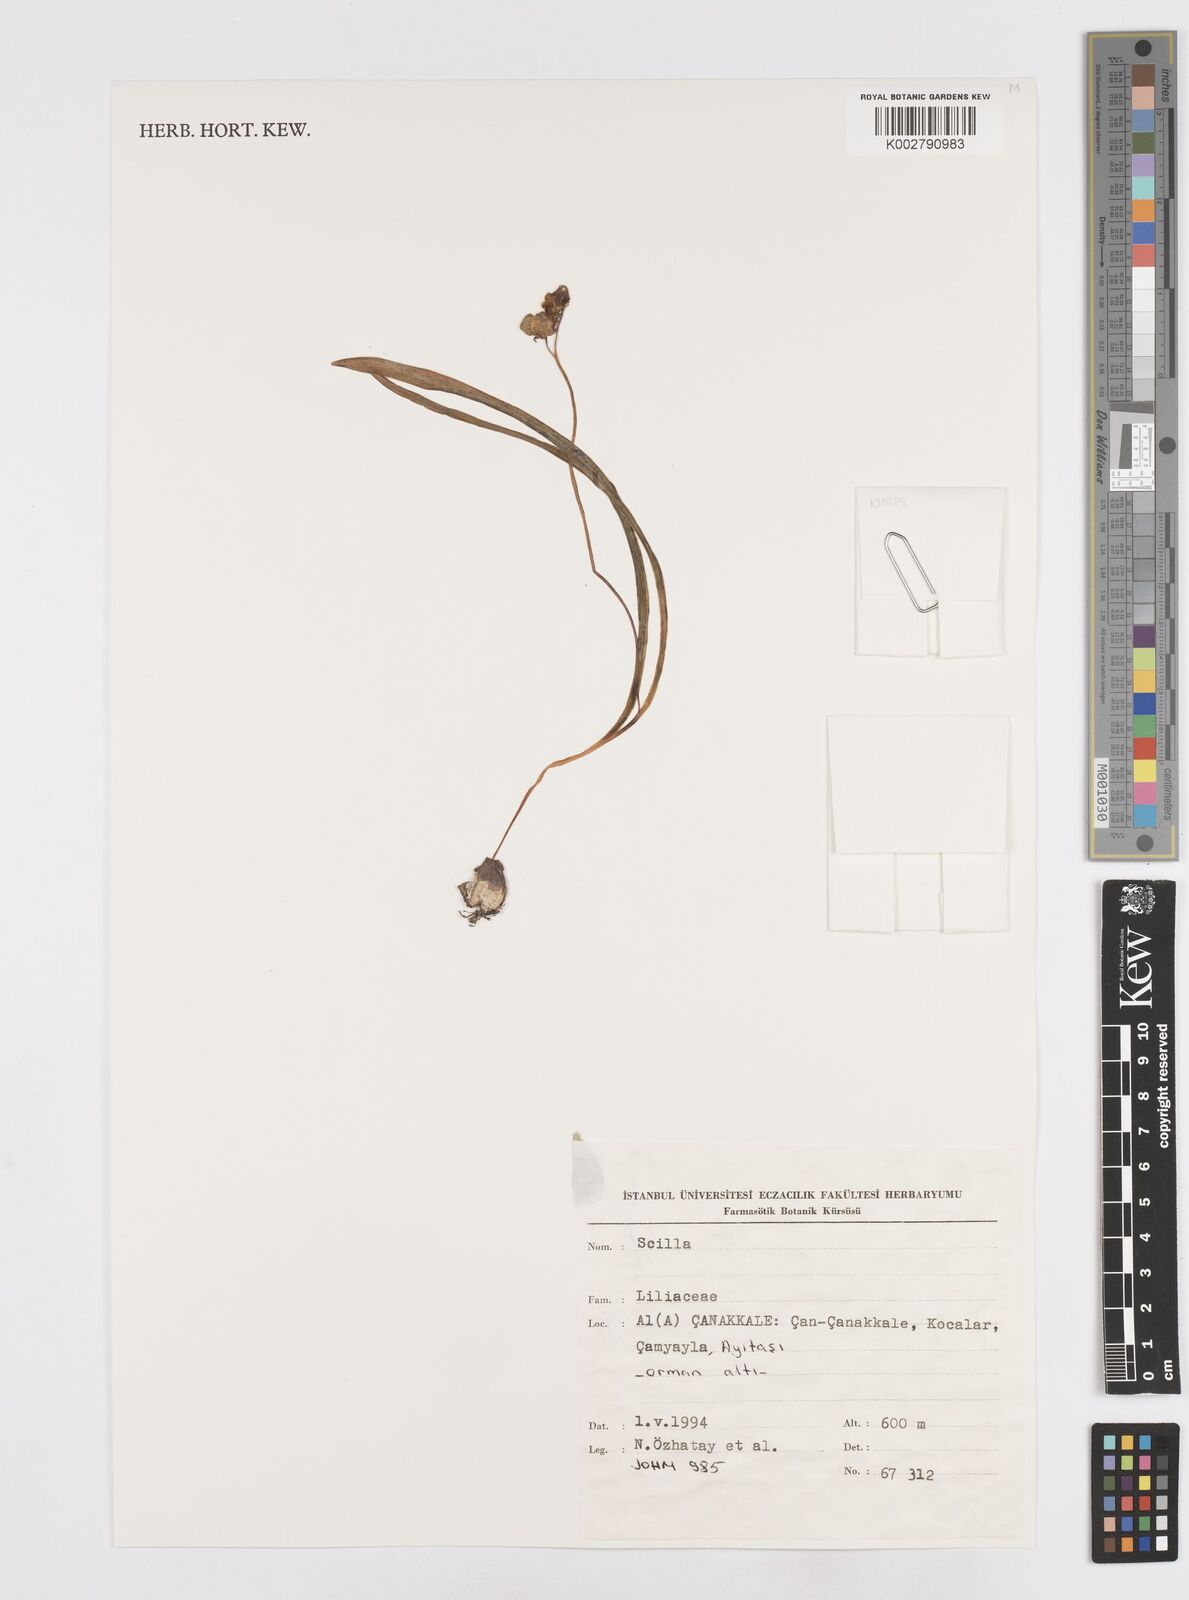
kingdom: Plantae
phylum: Tracheophyta
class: Liliopsida
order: Asparagales
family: Asparagaceae
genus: Scilla
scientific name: Scilla
